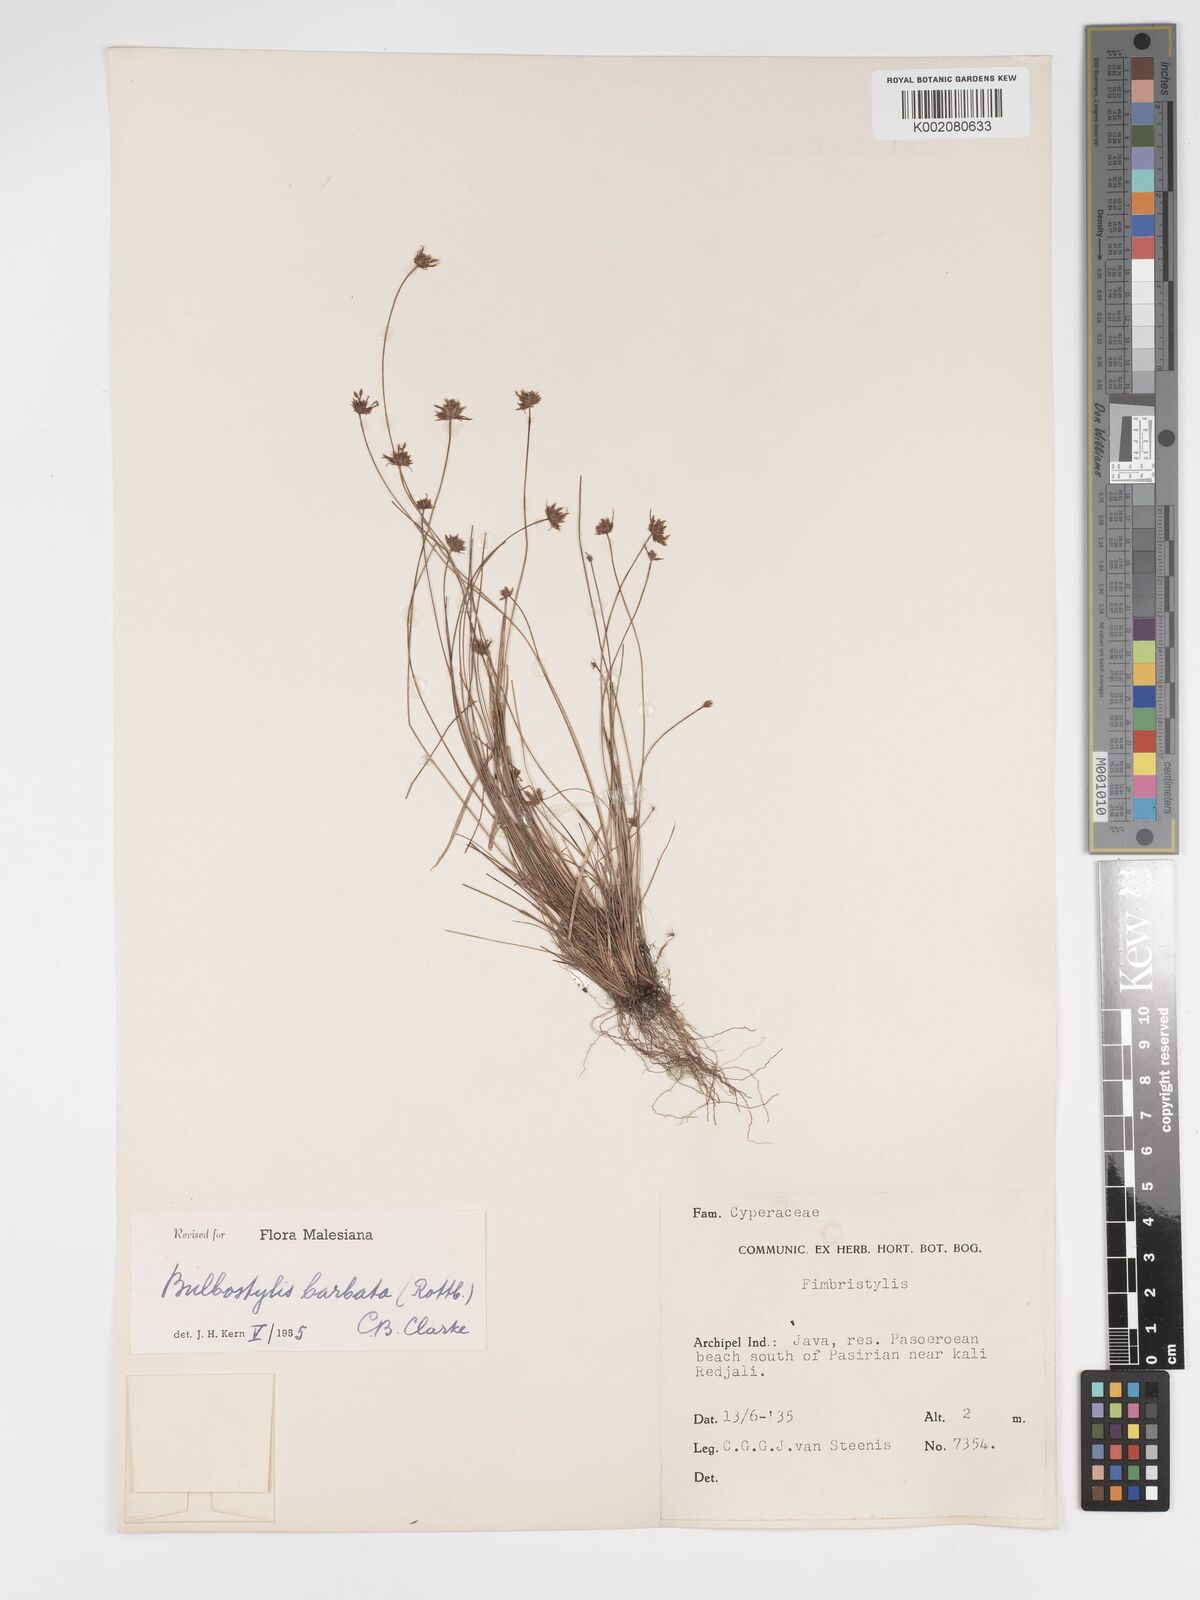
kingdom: Plantae
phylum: Tracheophyta
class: Liliopsida
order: Poales
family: Cyperaceae
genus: Bulbostylis
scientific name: Bulbostylis barbata
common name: Watergrass
